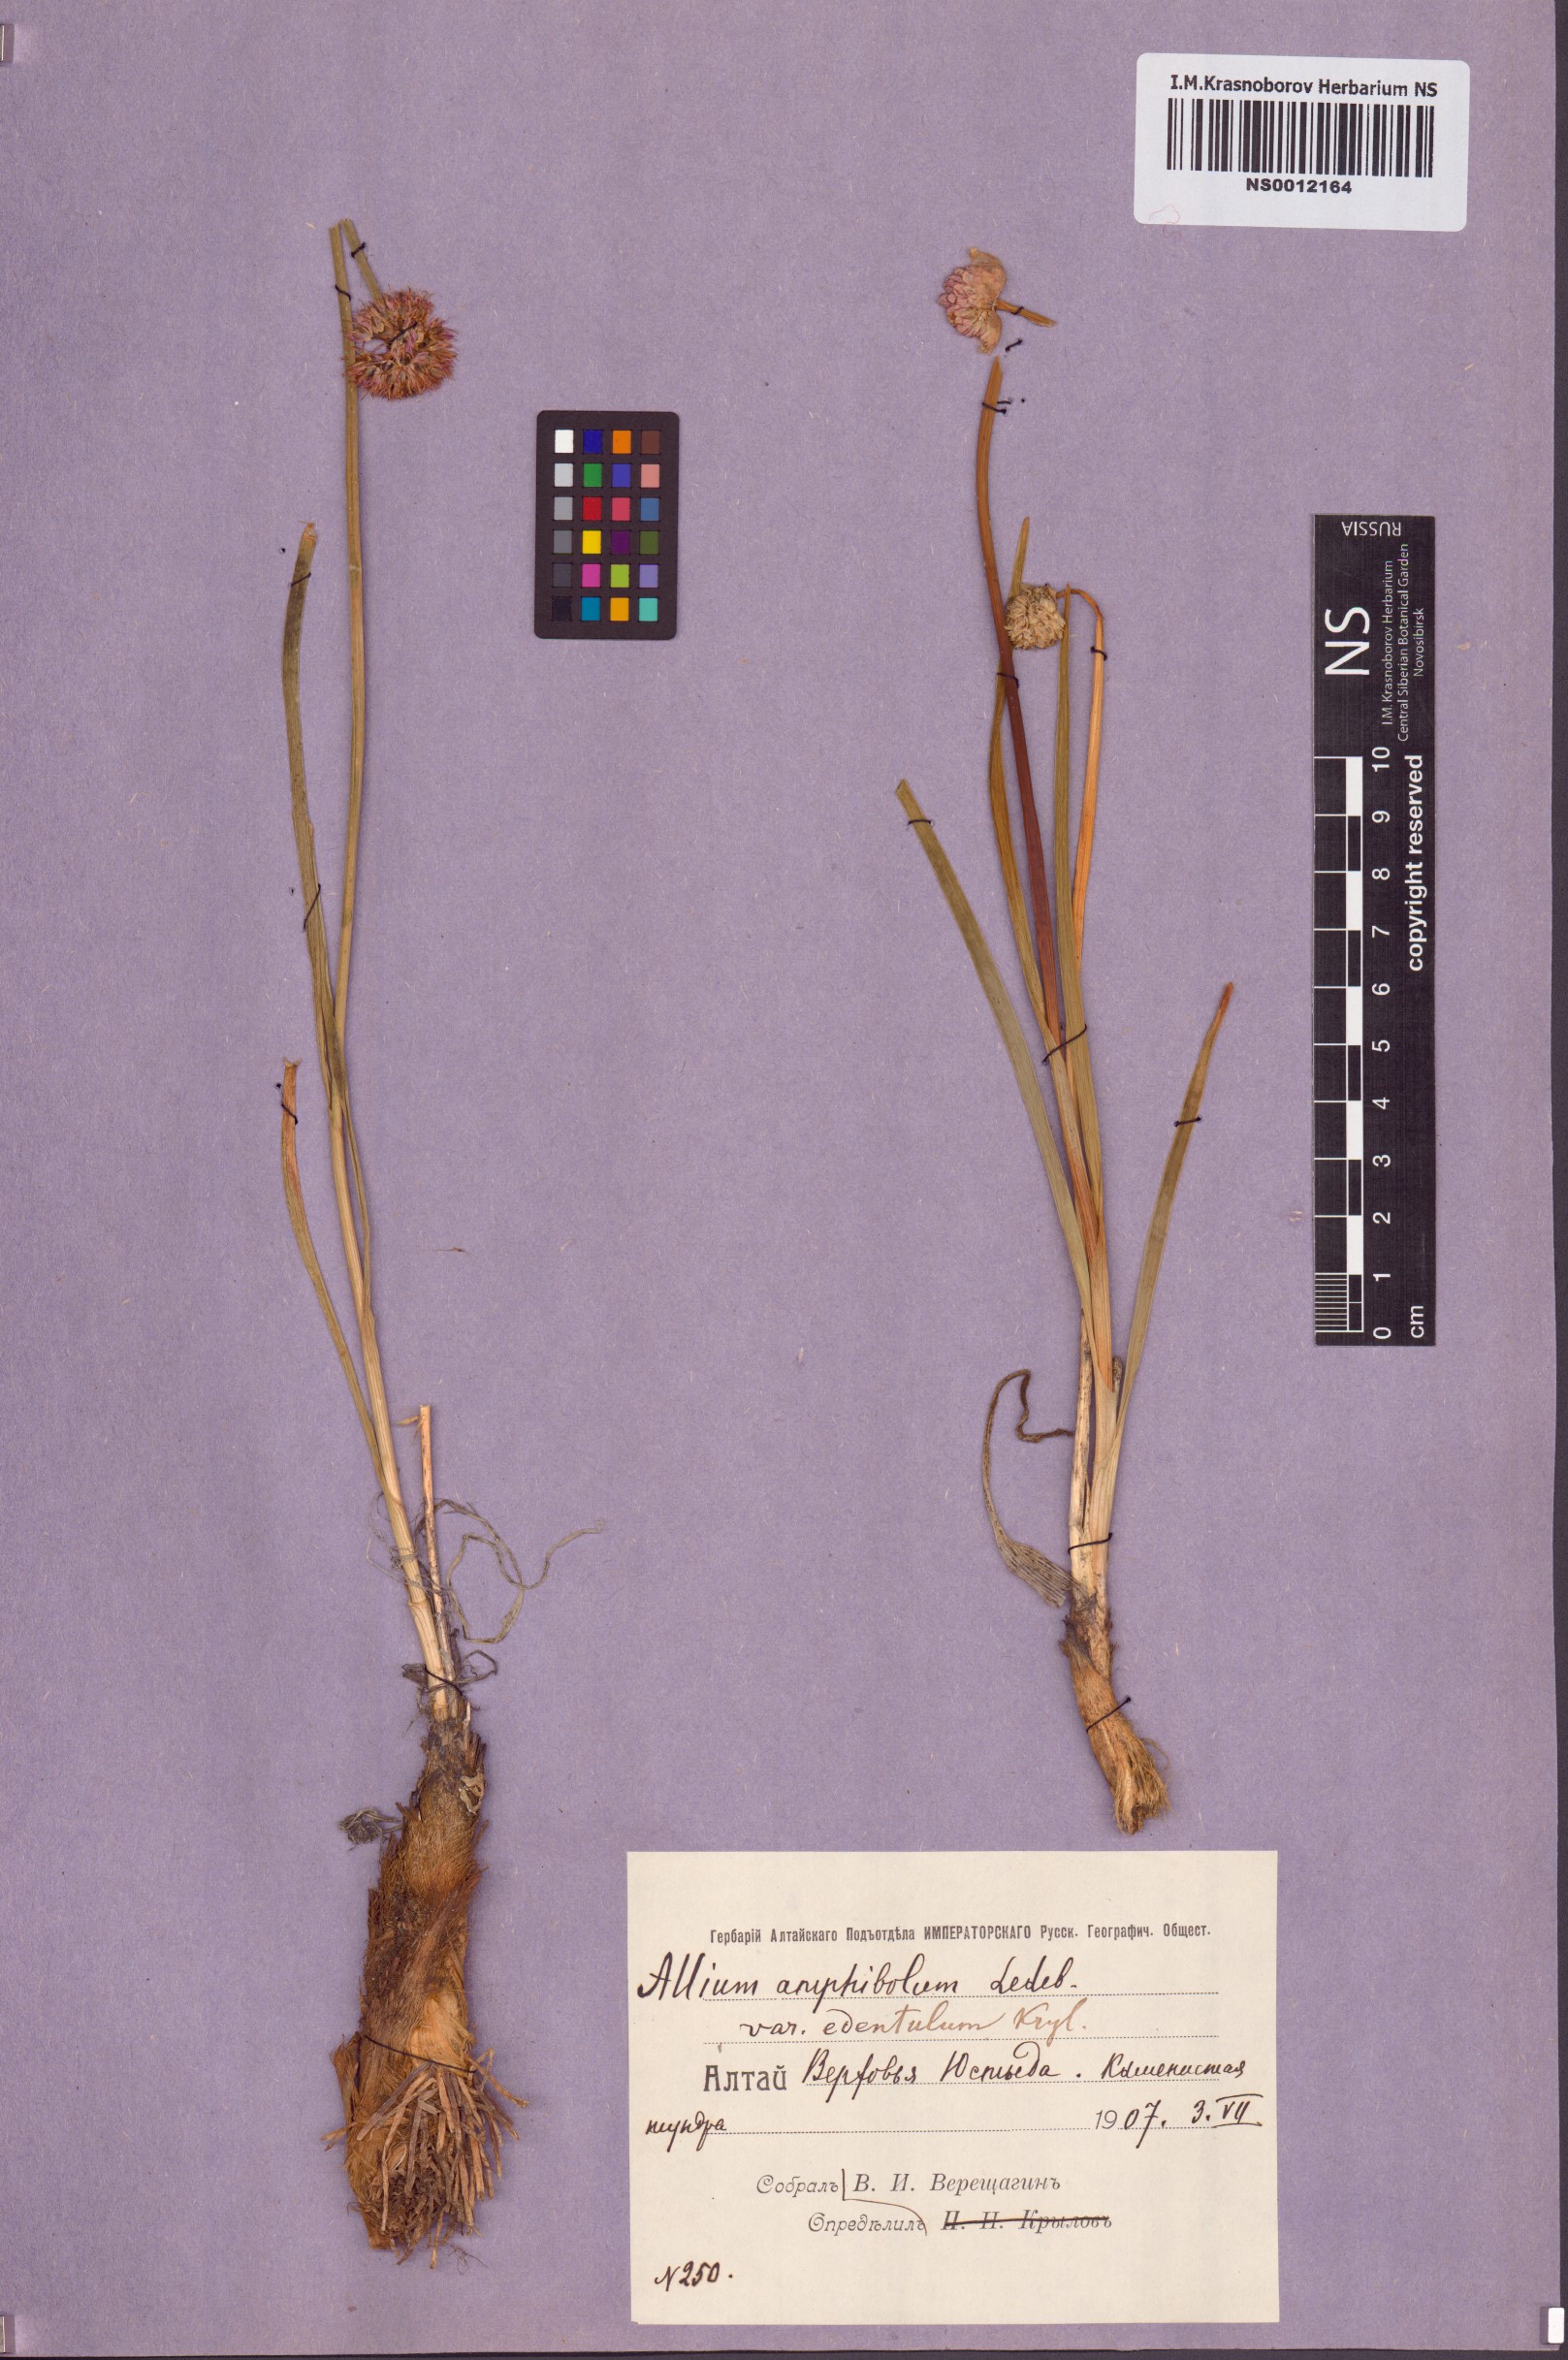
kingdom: Plantae
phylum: Tracheophyta
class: Liliopsida
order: Asparagales
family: Amaryllidaceae
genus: Allium
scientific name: Allium amphibolum
